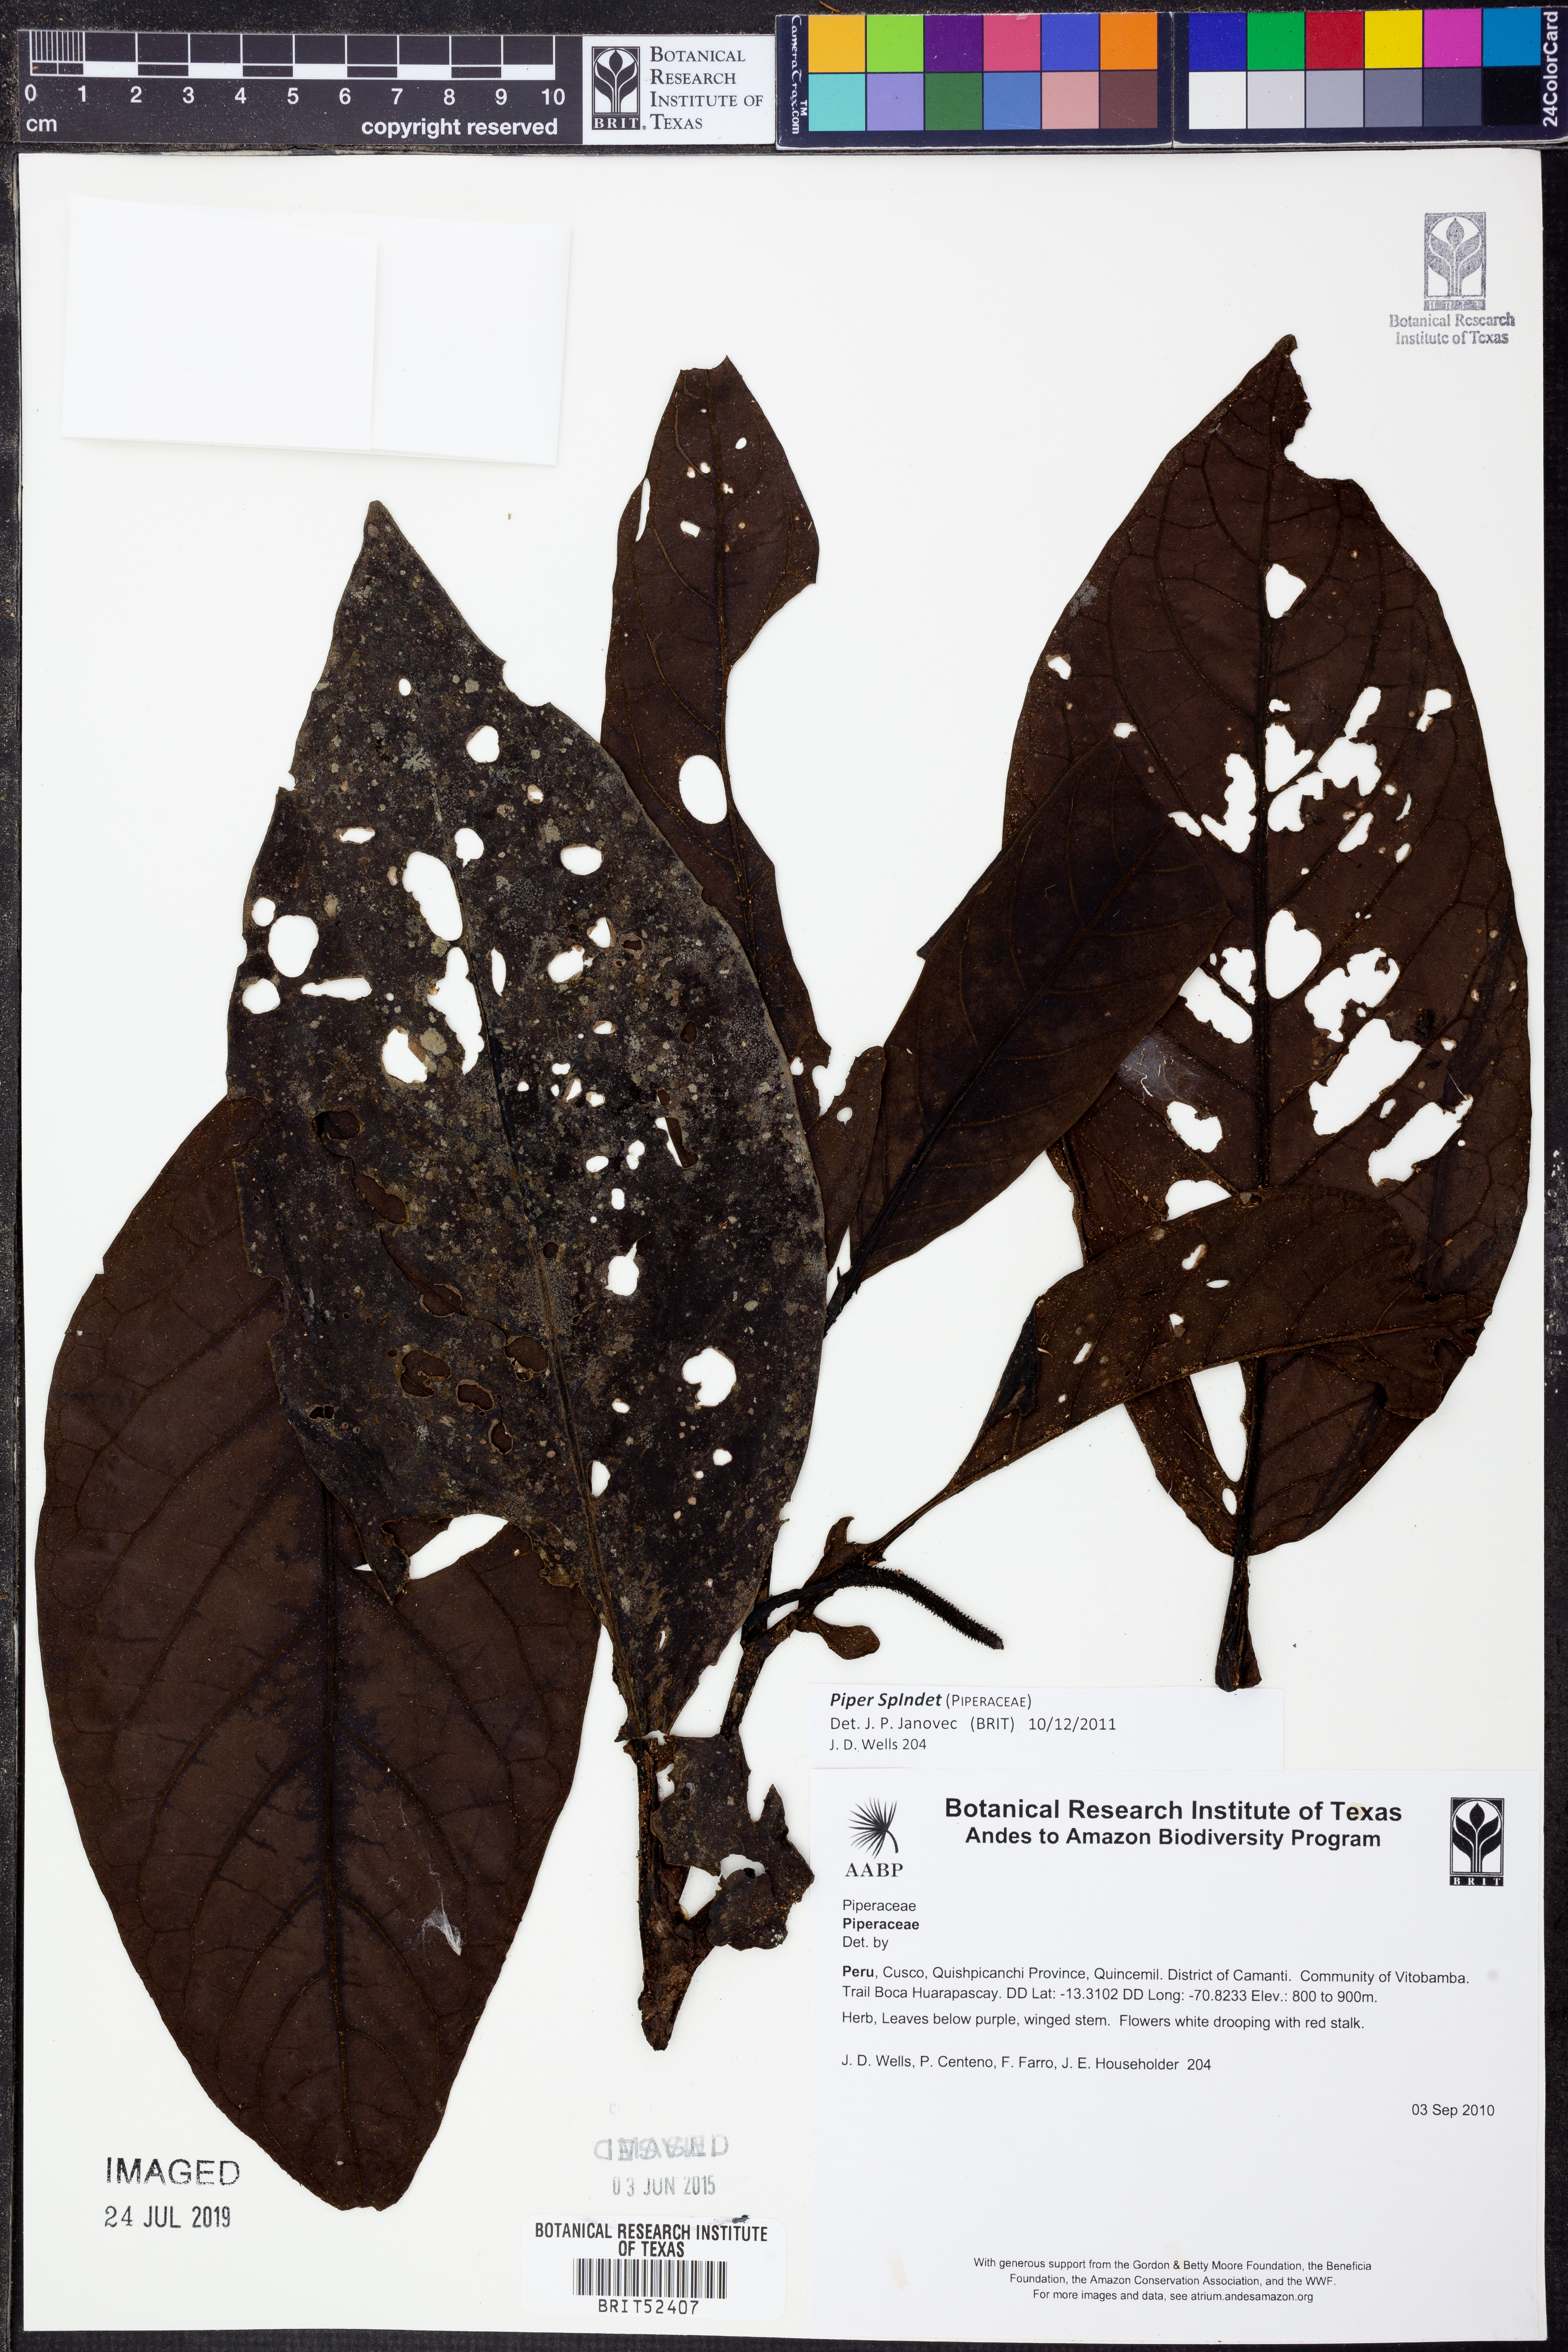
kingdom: Plantae
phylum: Tracheophyta
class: Magnoliopsida
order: Piperales
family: Piperaceae
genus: Piper
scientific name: Piper
